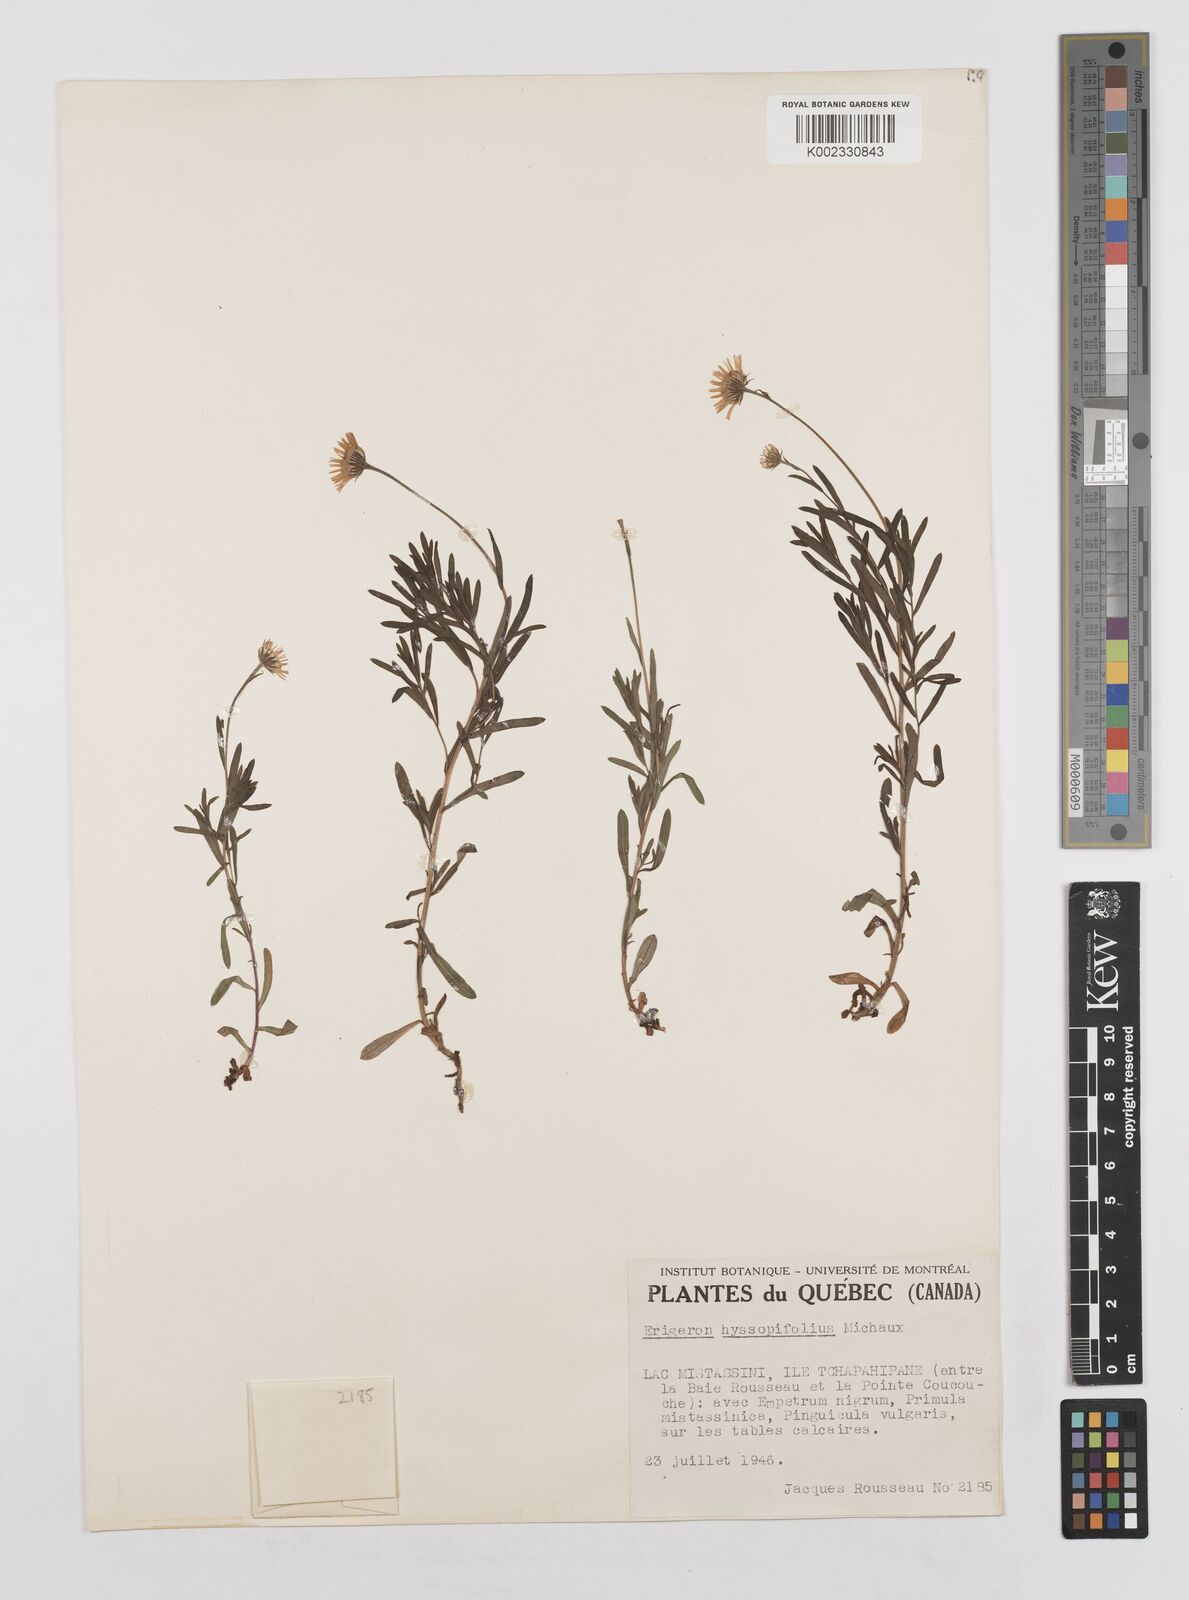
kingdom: Plantae
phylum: Tracheophyta
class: Magnoliopsida
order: Asterales
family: Asteraceae
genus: Erigeron
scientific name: Erigeron hyssopifolius
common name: Daisy fleabane
